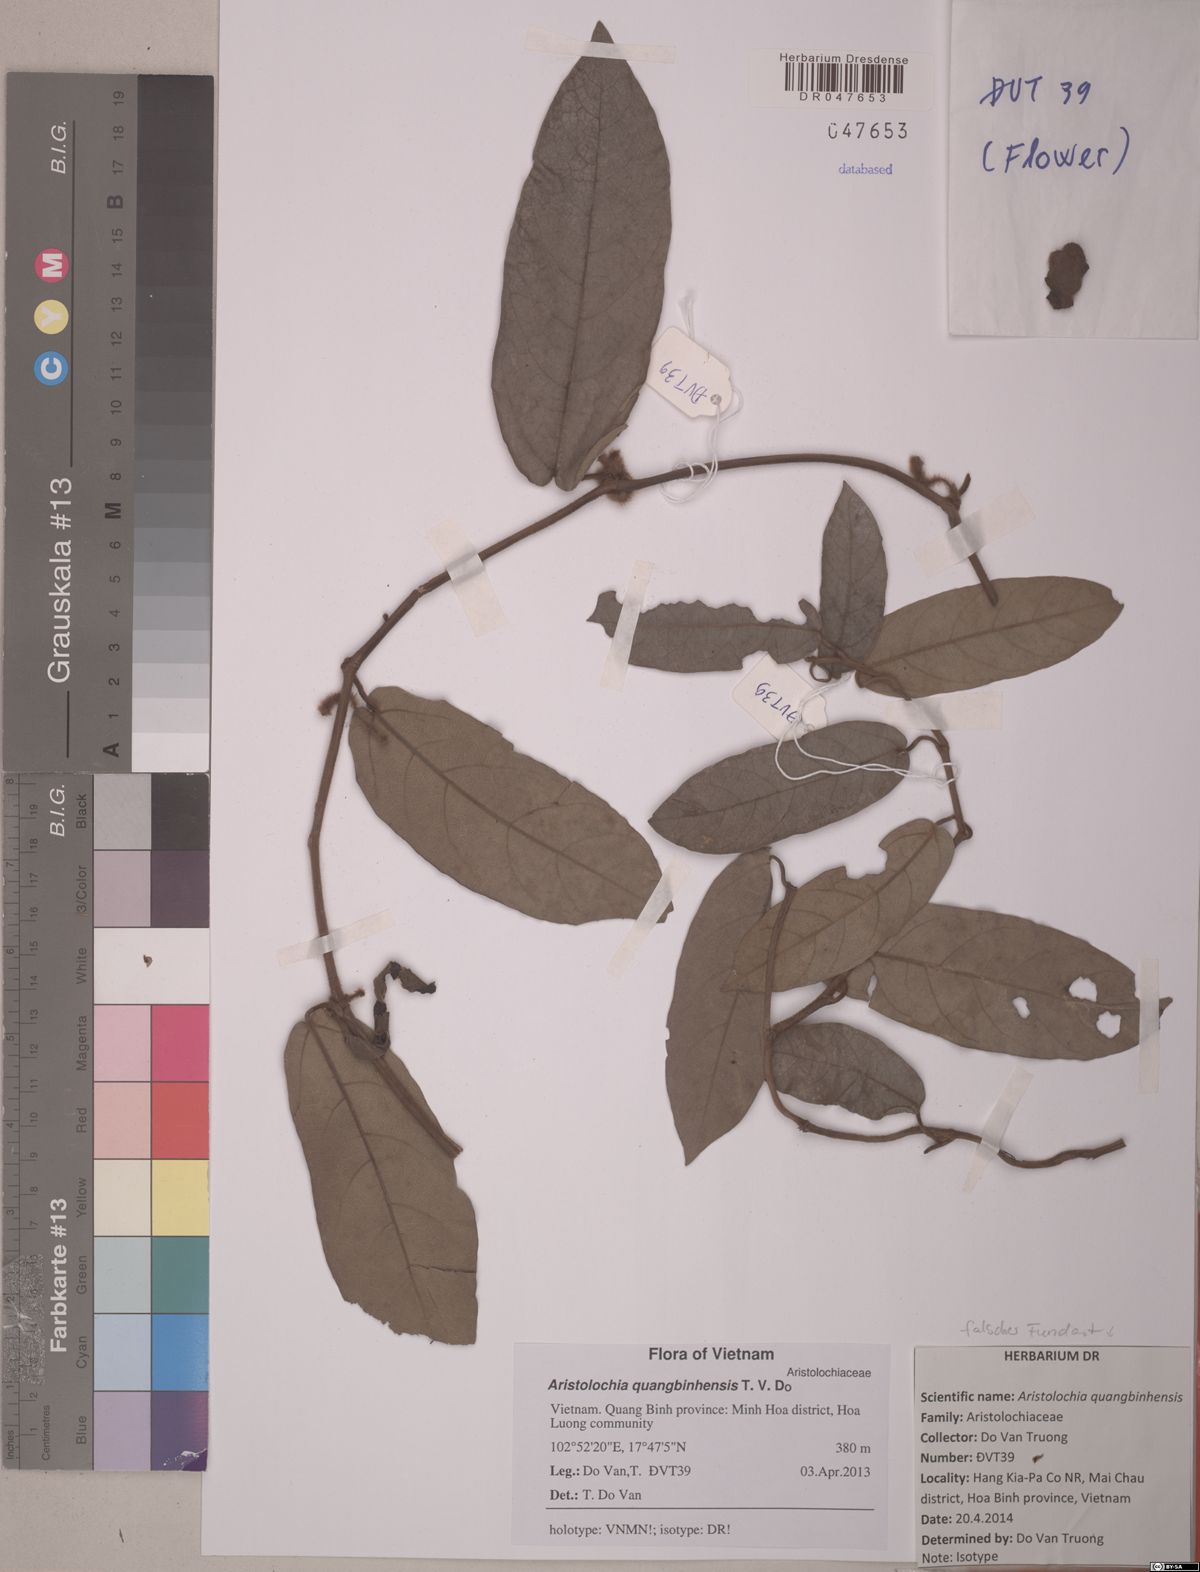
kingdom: Plantae
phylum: Tracheophyta
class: Magnoliopsida
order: Piperales
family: Aristolochiaceae
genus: Isotrema
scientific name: Isotrema quangbinhense
